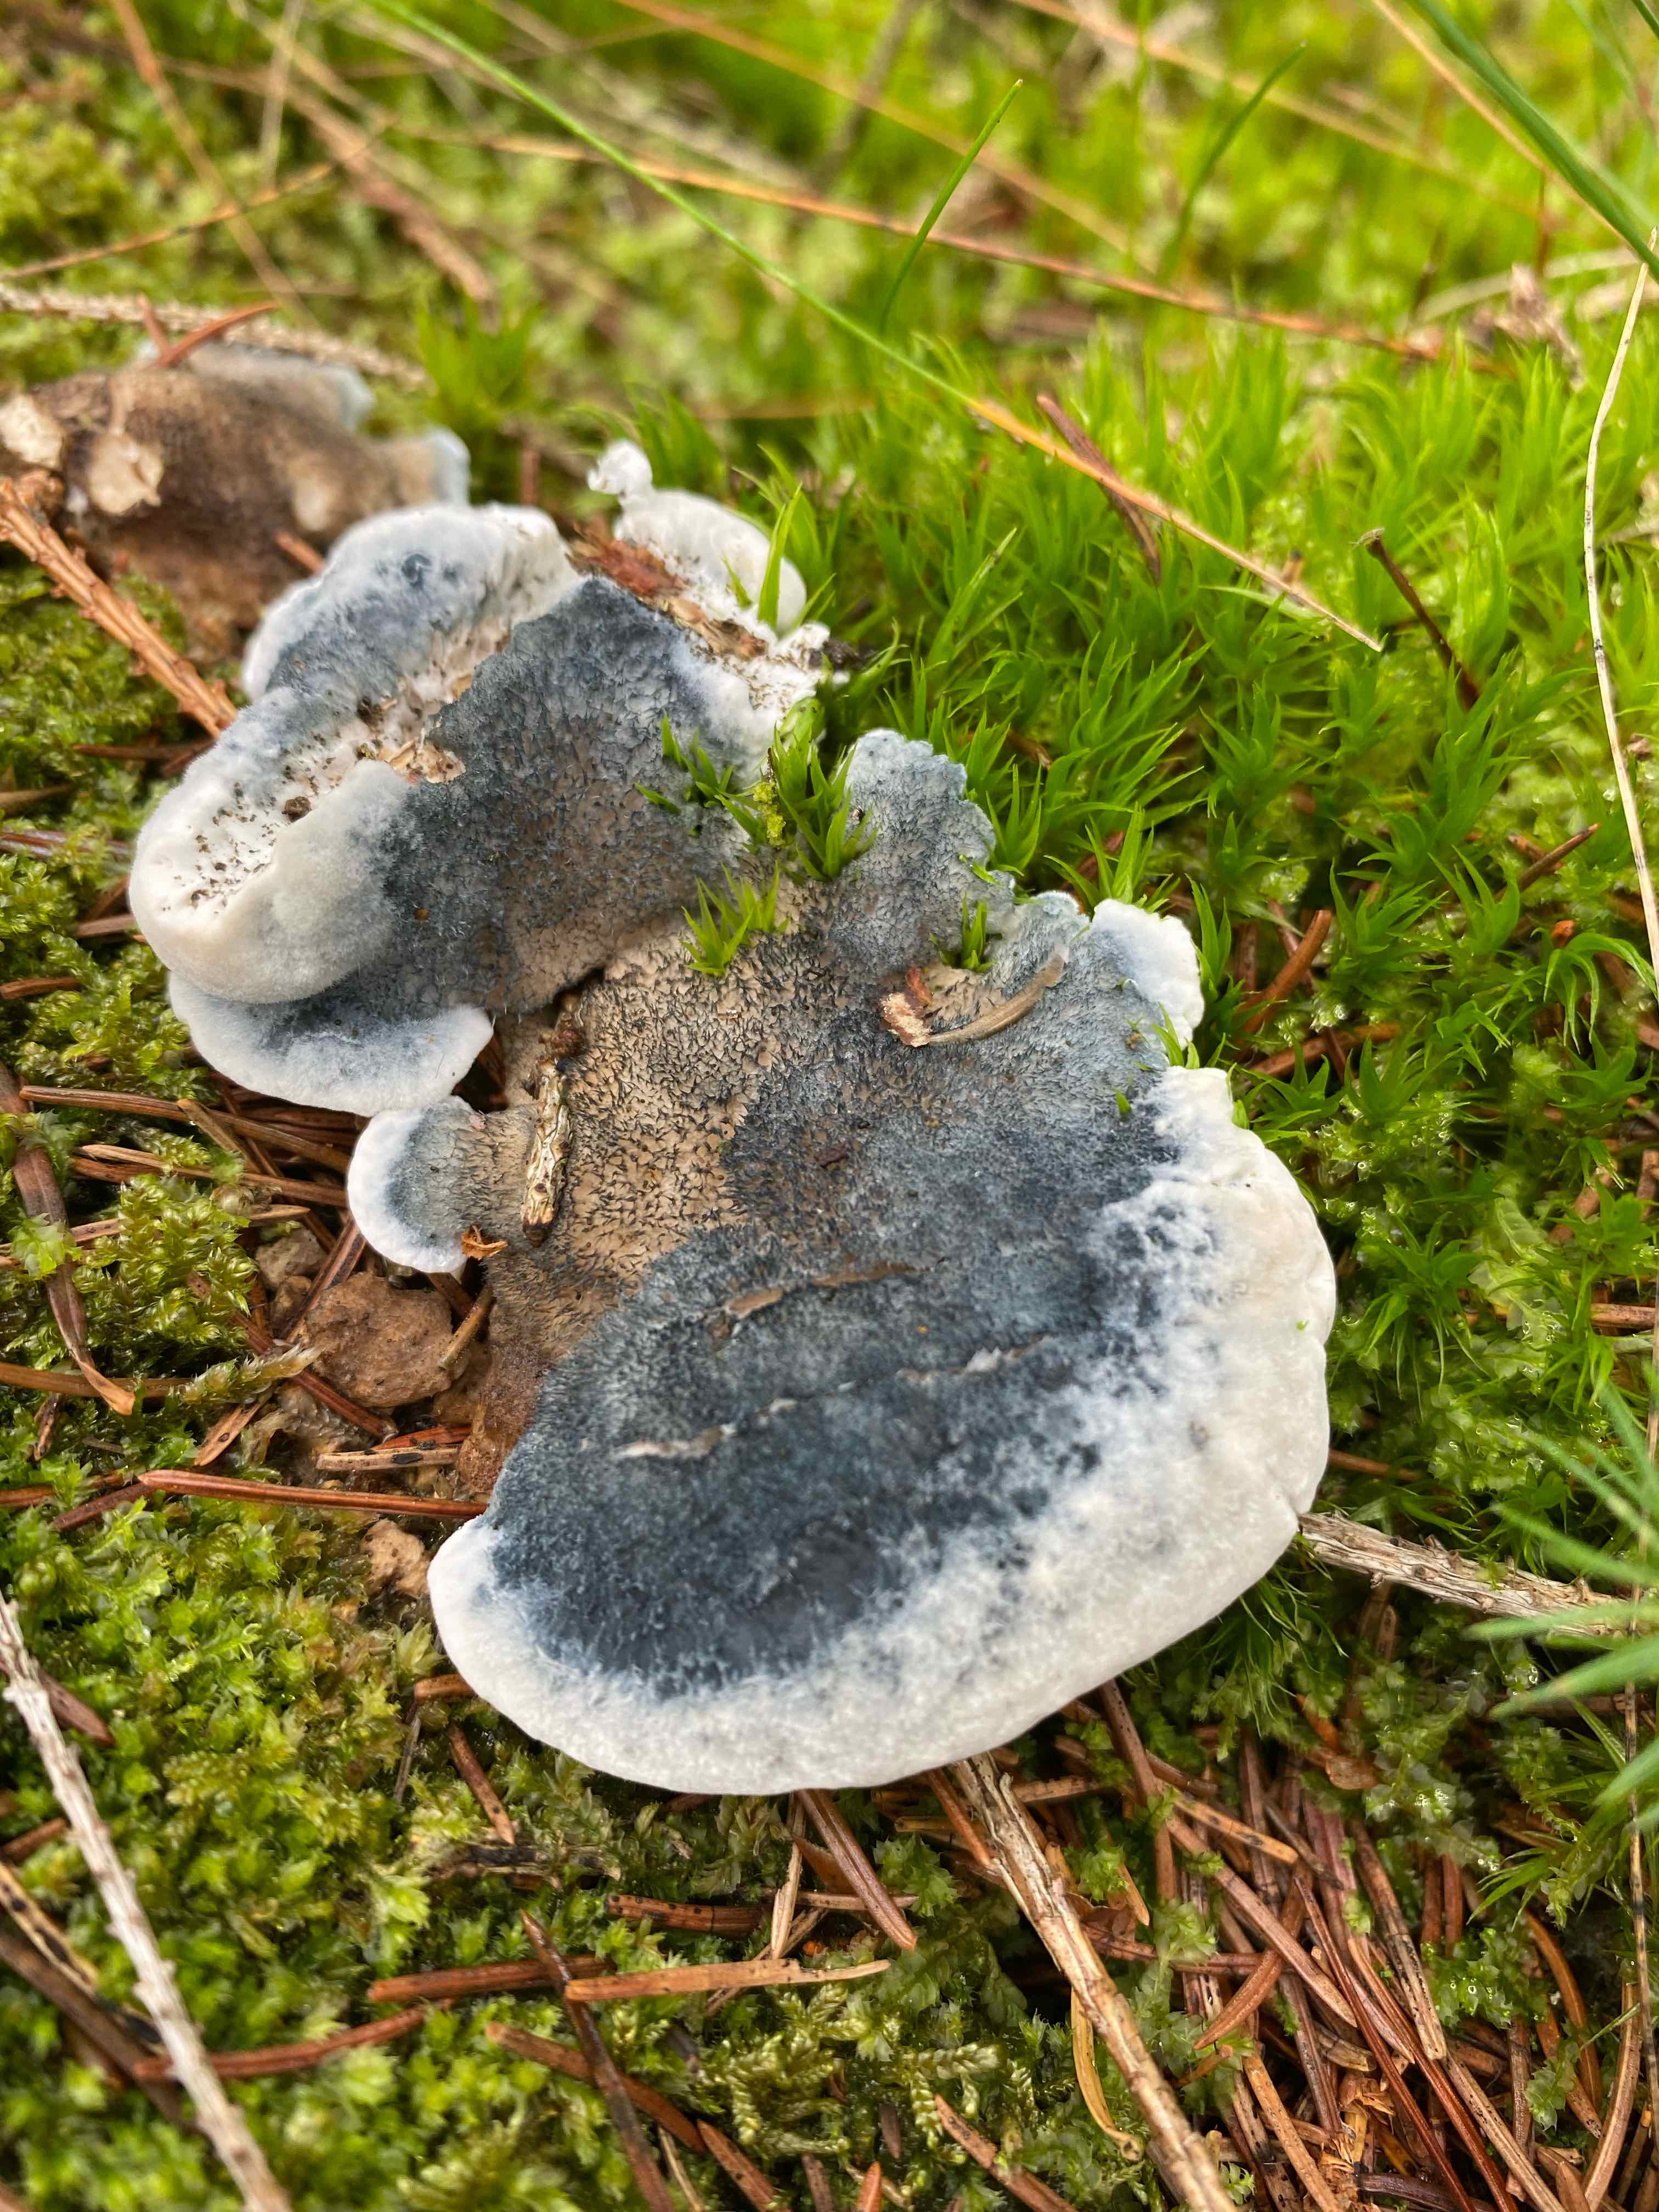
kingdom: Fungi
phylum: Basidiomycota
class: Agaricomycetes
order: Polyporales
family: Polyporaceae
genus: Cyanosporus
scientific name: Cyanosporus caesius
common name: blålig kødporesvamp
